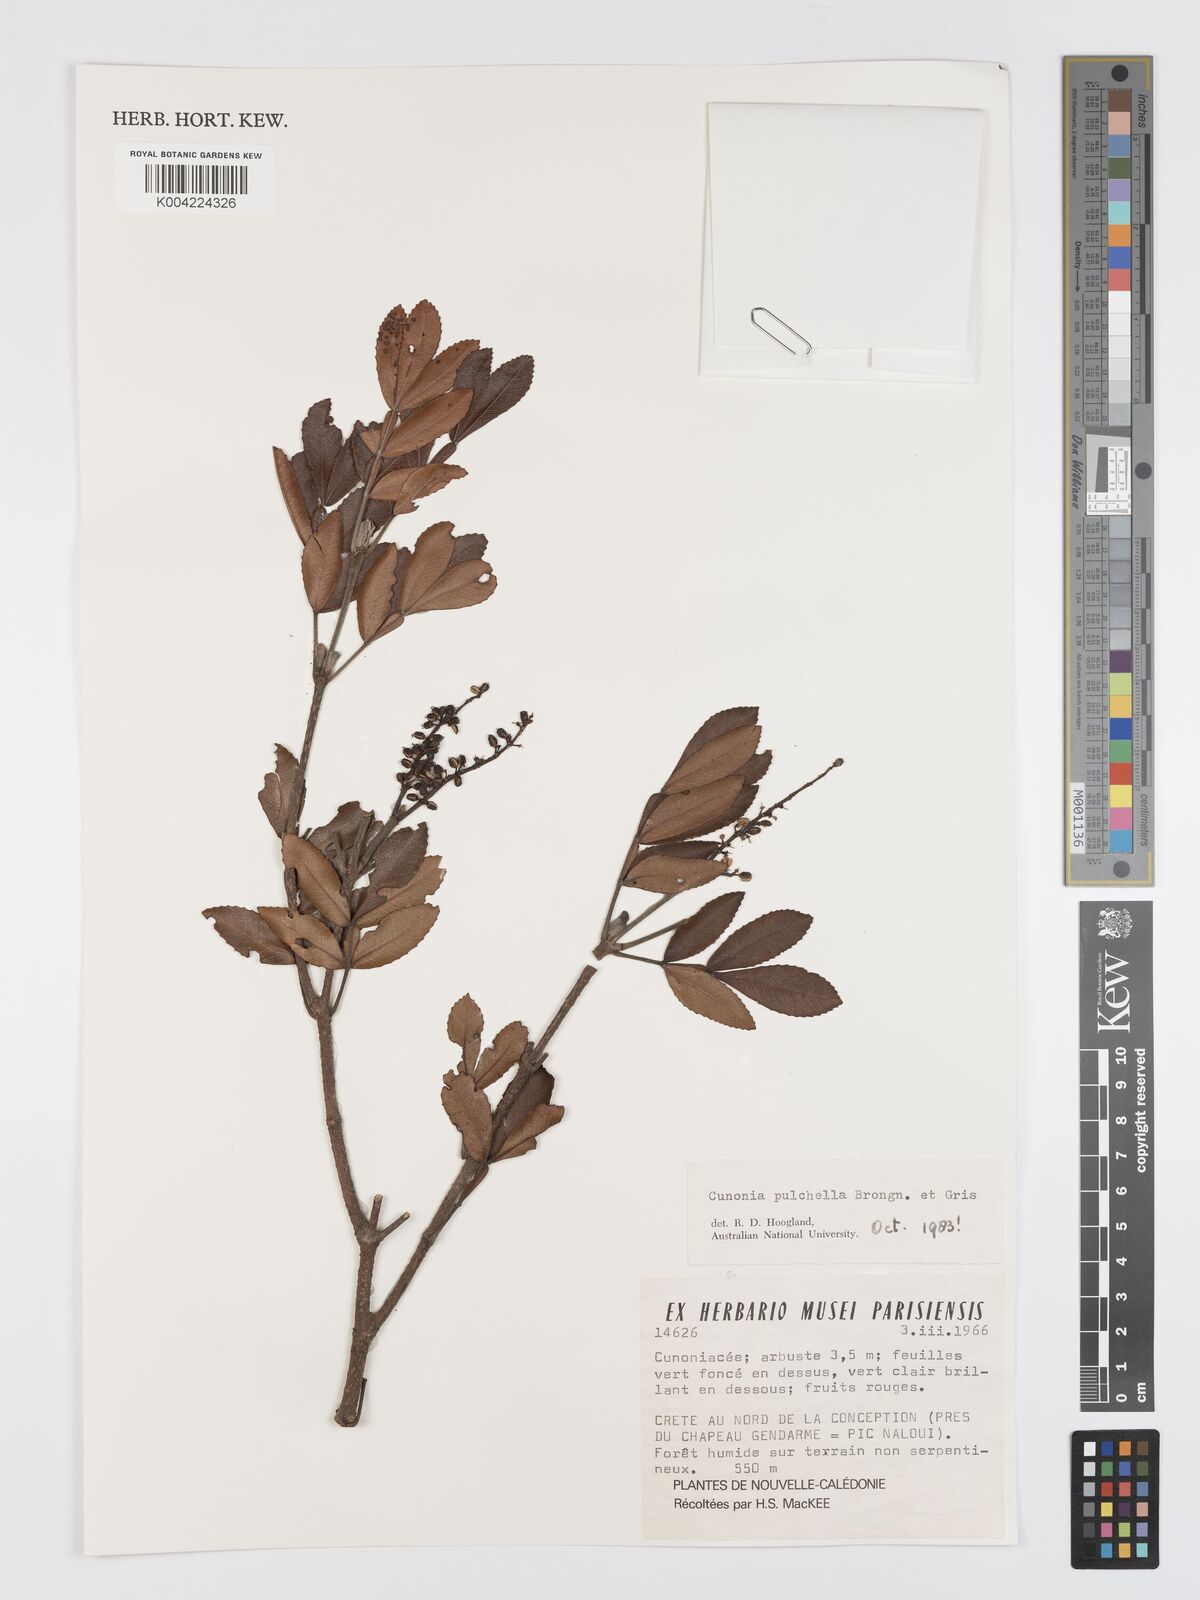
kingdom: Plantae
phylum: Tracheophyta
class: Magnoliopsida
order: Oxalidales
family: Cunoniaceae
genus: Cunonia
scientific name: Cunonia pulchella
